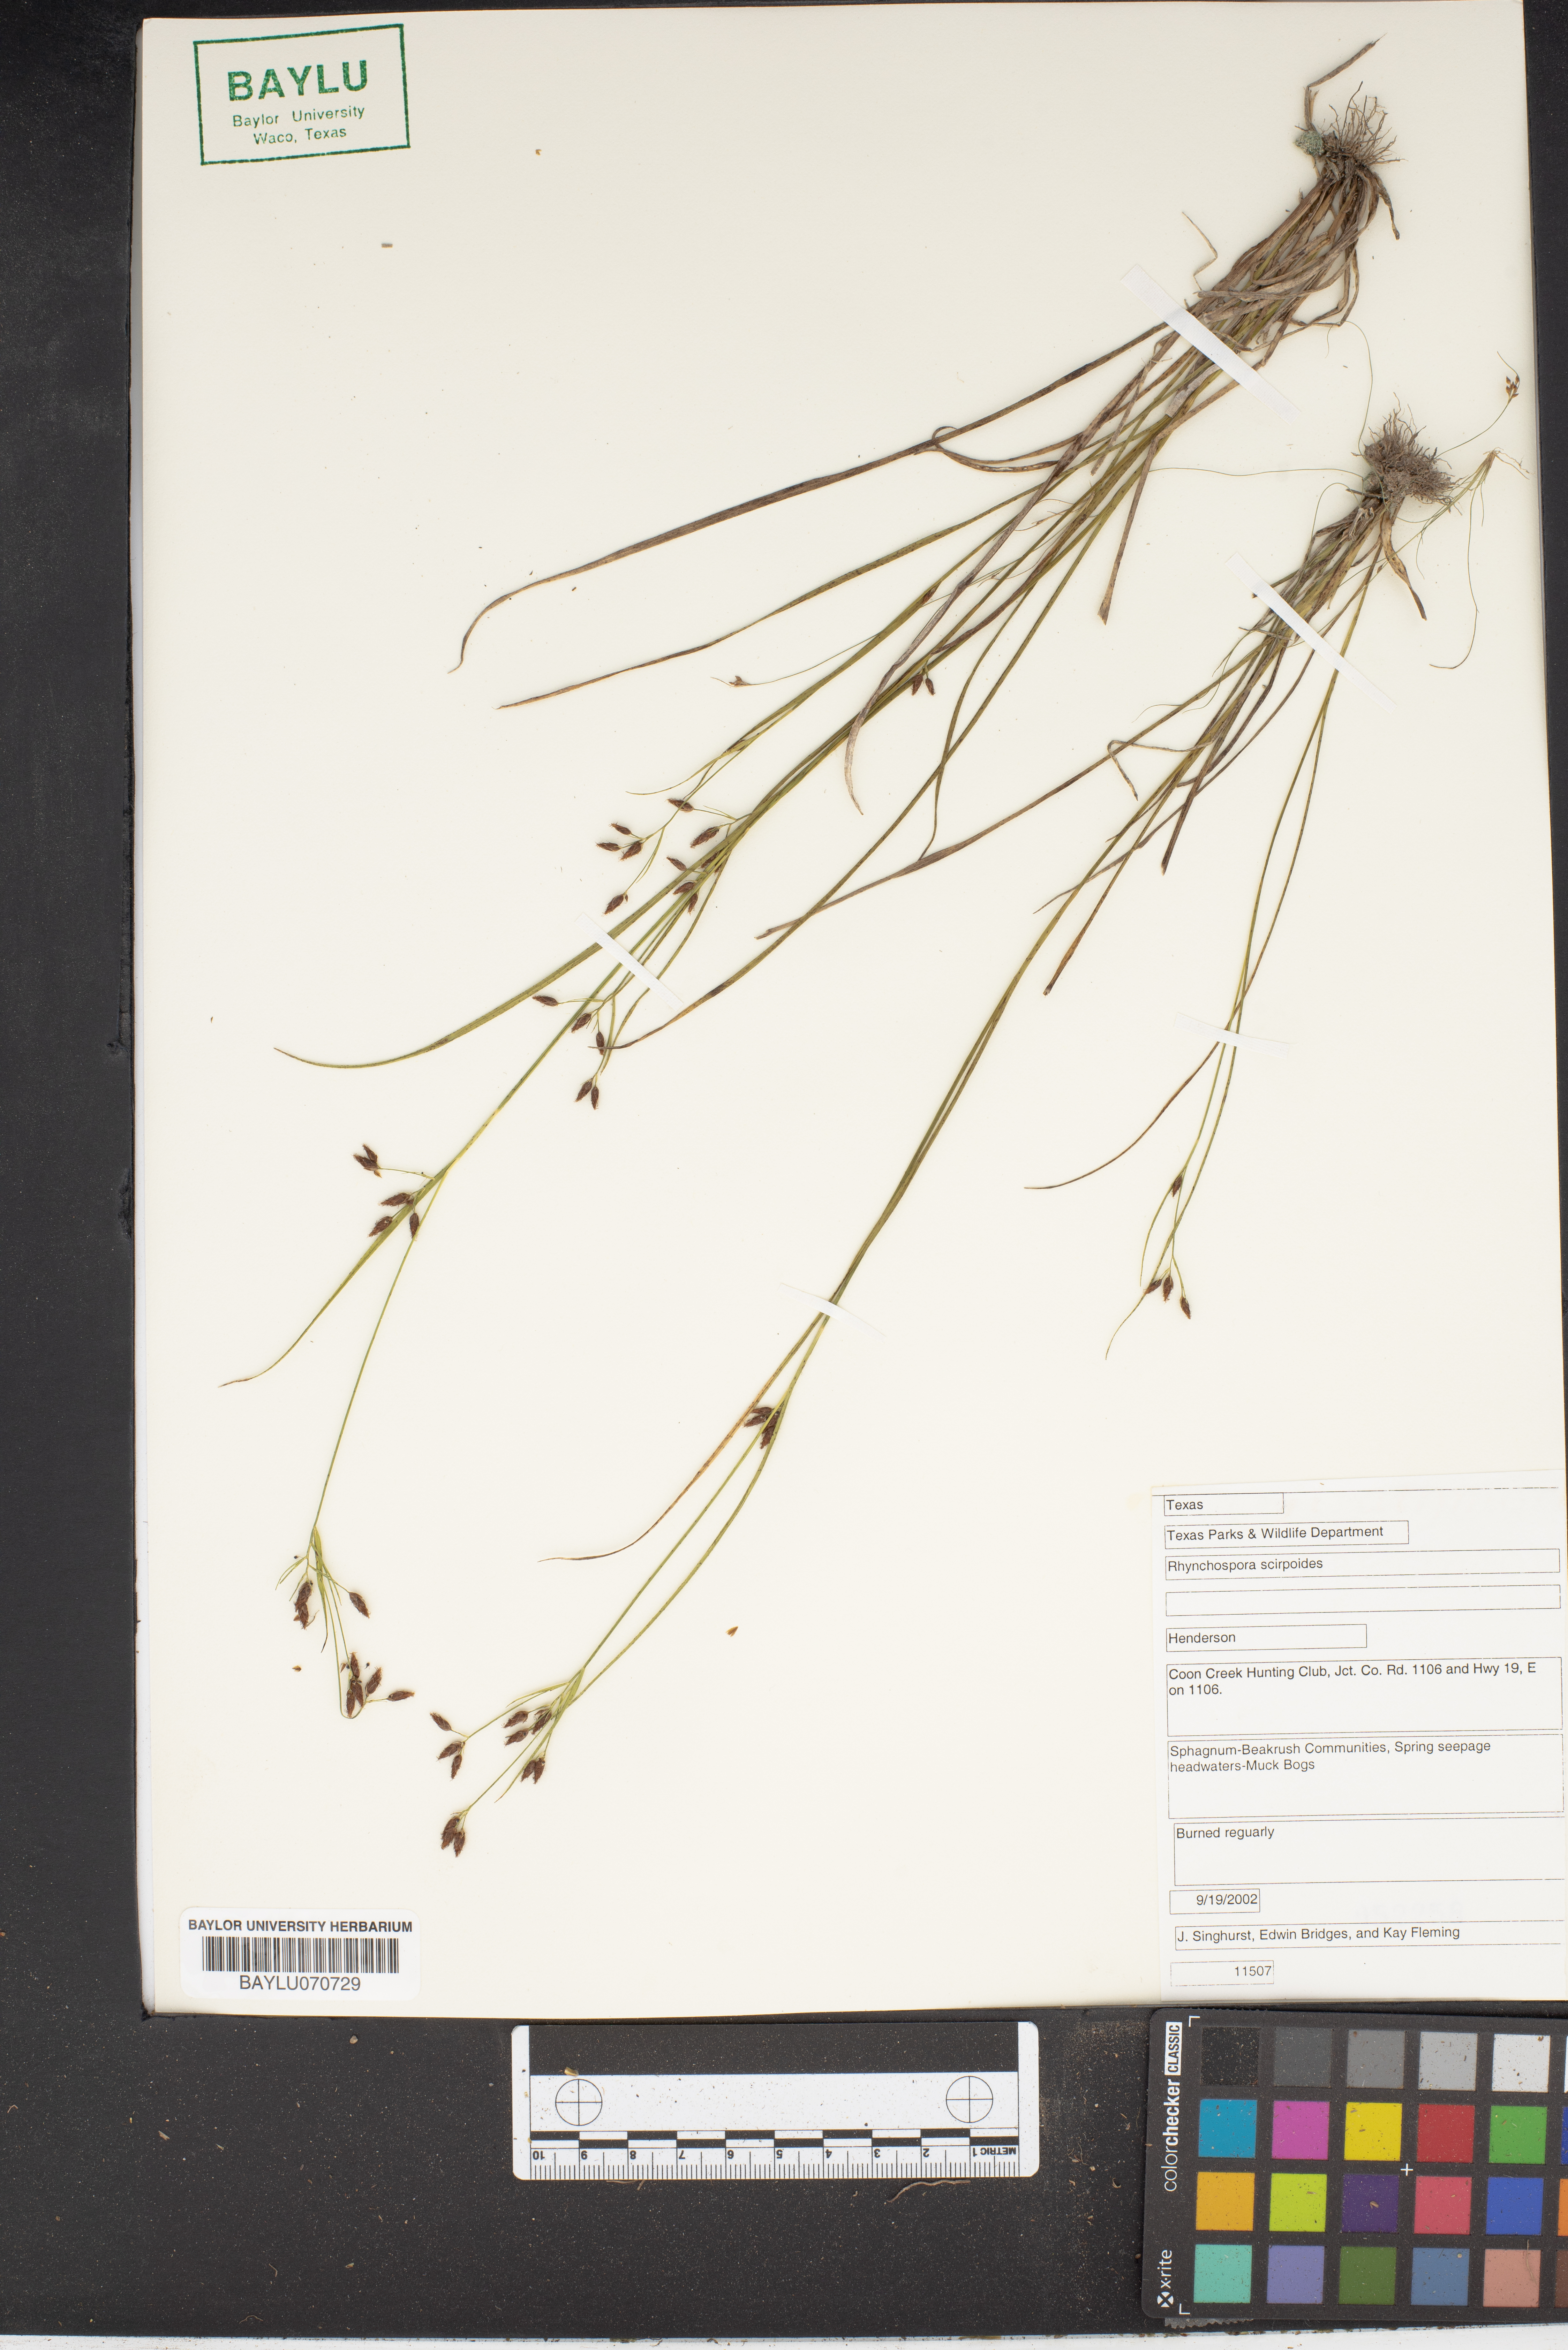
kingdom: Plantae
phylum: Tracheophyta
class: Liliopsida
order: Poales
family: Cyperaceae
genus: Rhynchospora
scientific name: Rhynchospora scirpoides
